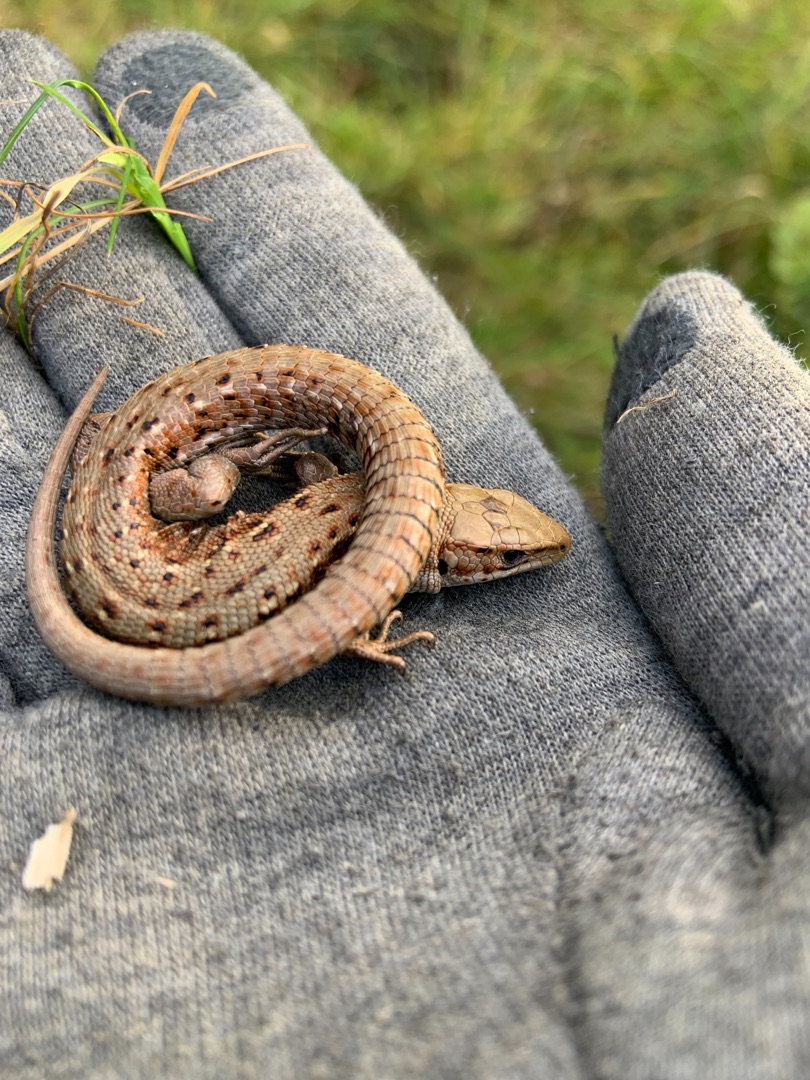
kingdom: Animalia
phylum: Chordata
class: Squamata
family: Lacertidae
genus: Zootoca
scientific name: Zootoca vivipara
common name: Skovfirben
